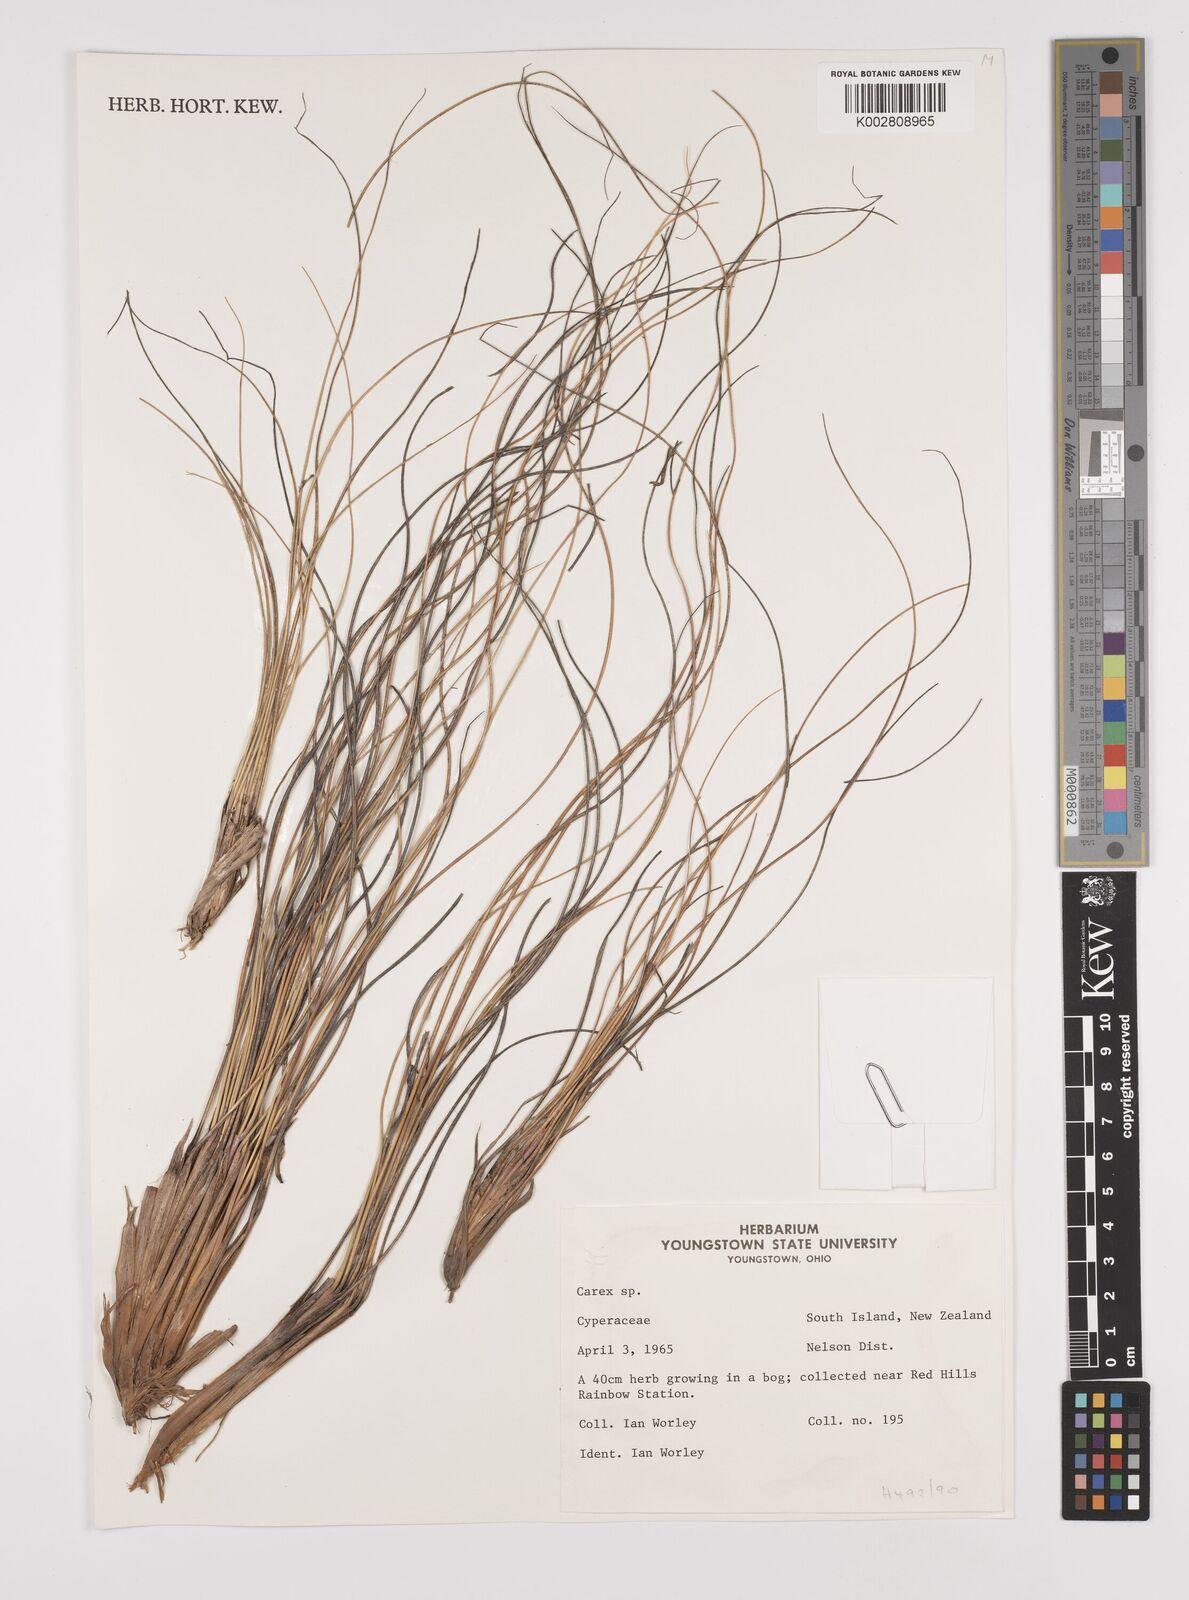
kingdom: Plantae
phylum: Tracheophyta
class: Liliopsida
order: Poales
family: Cyperaceae
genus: Carex
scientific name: Carex
